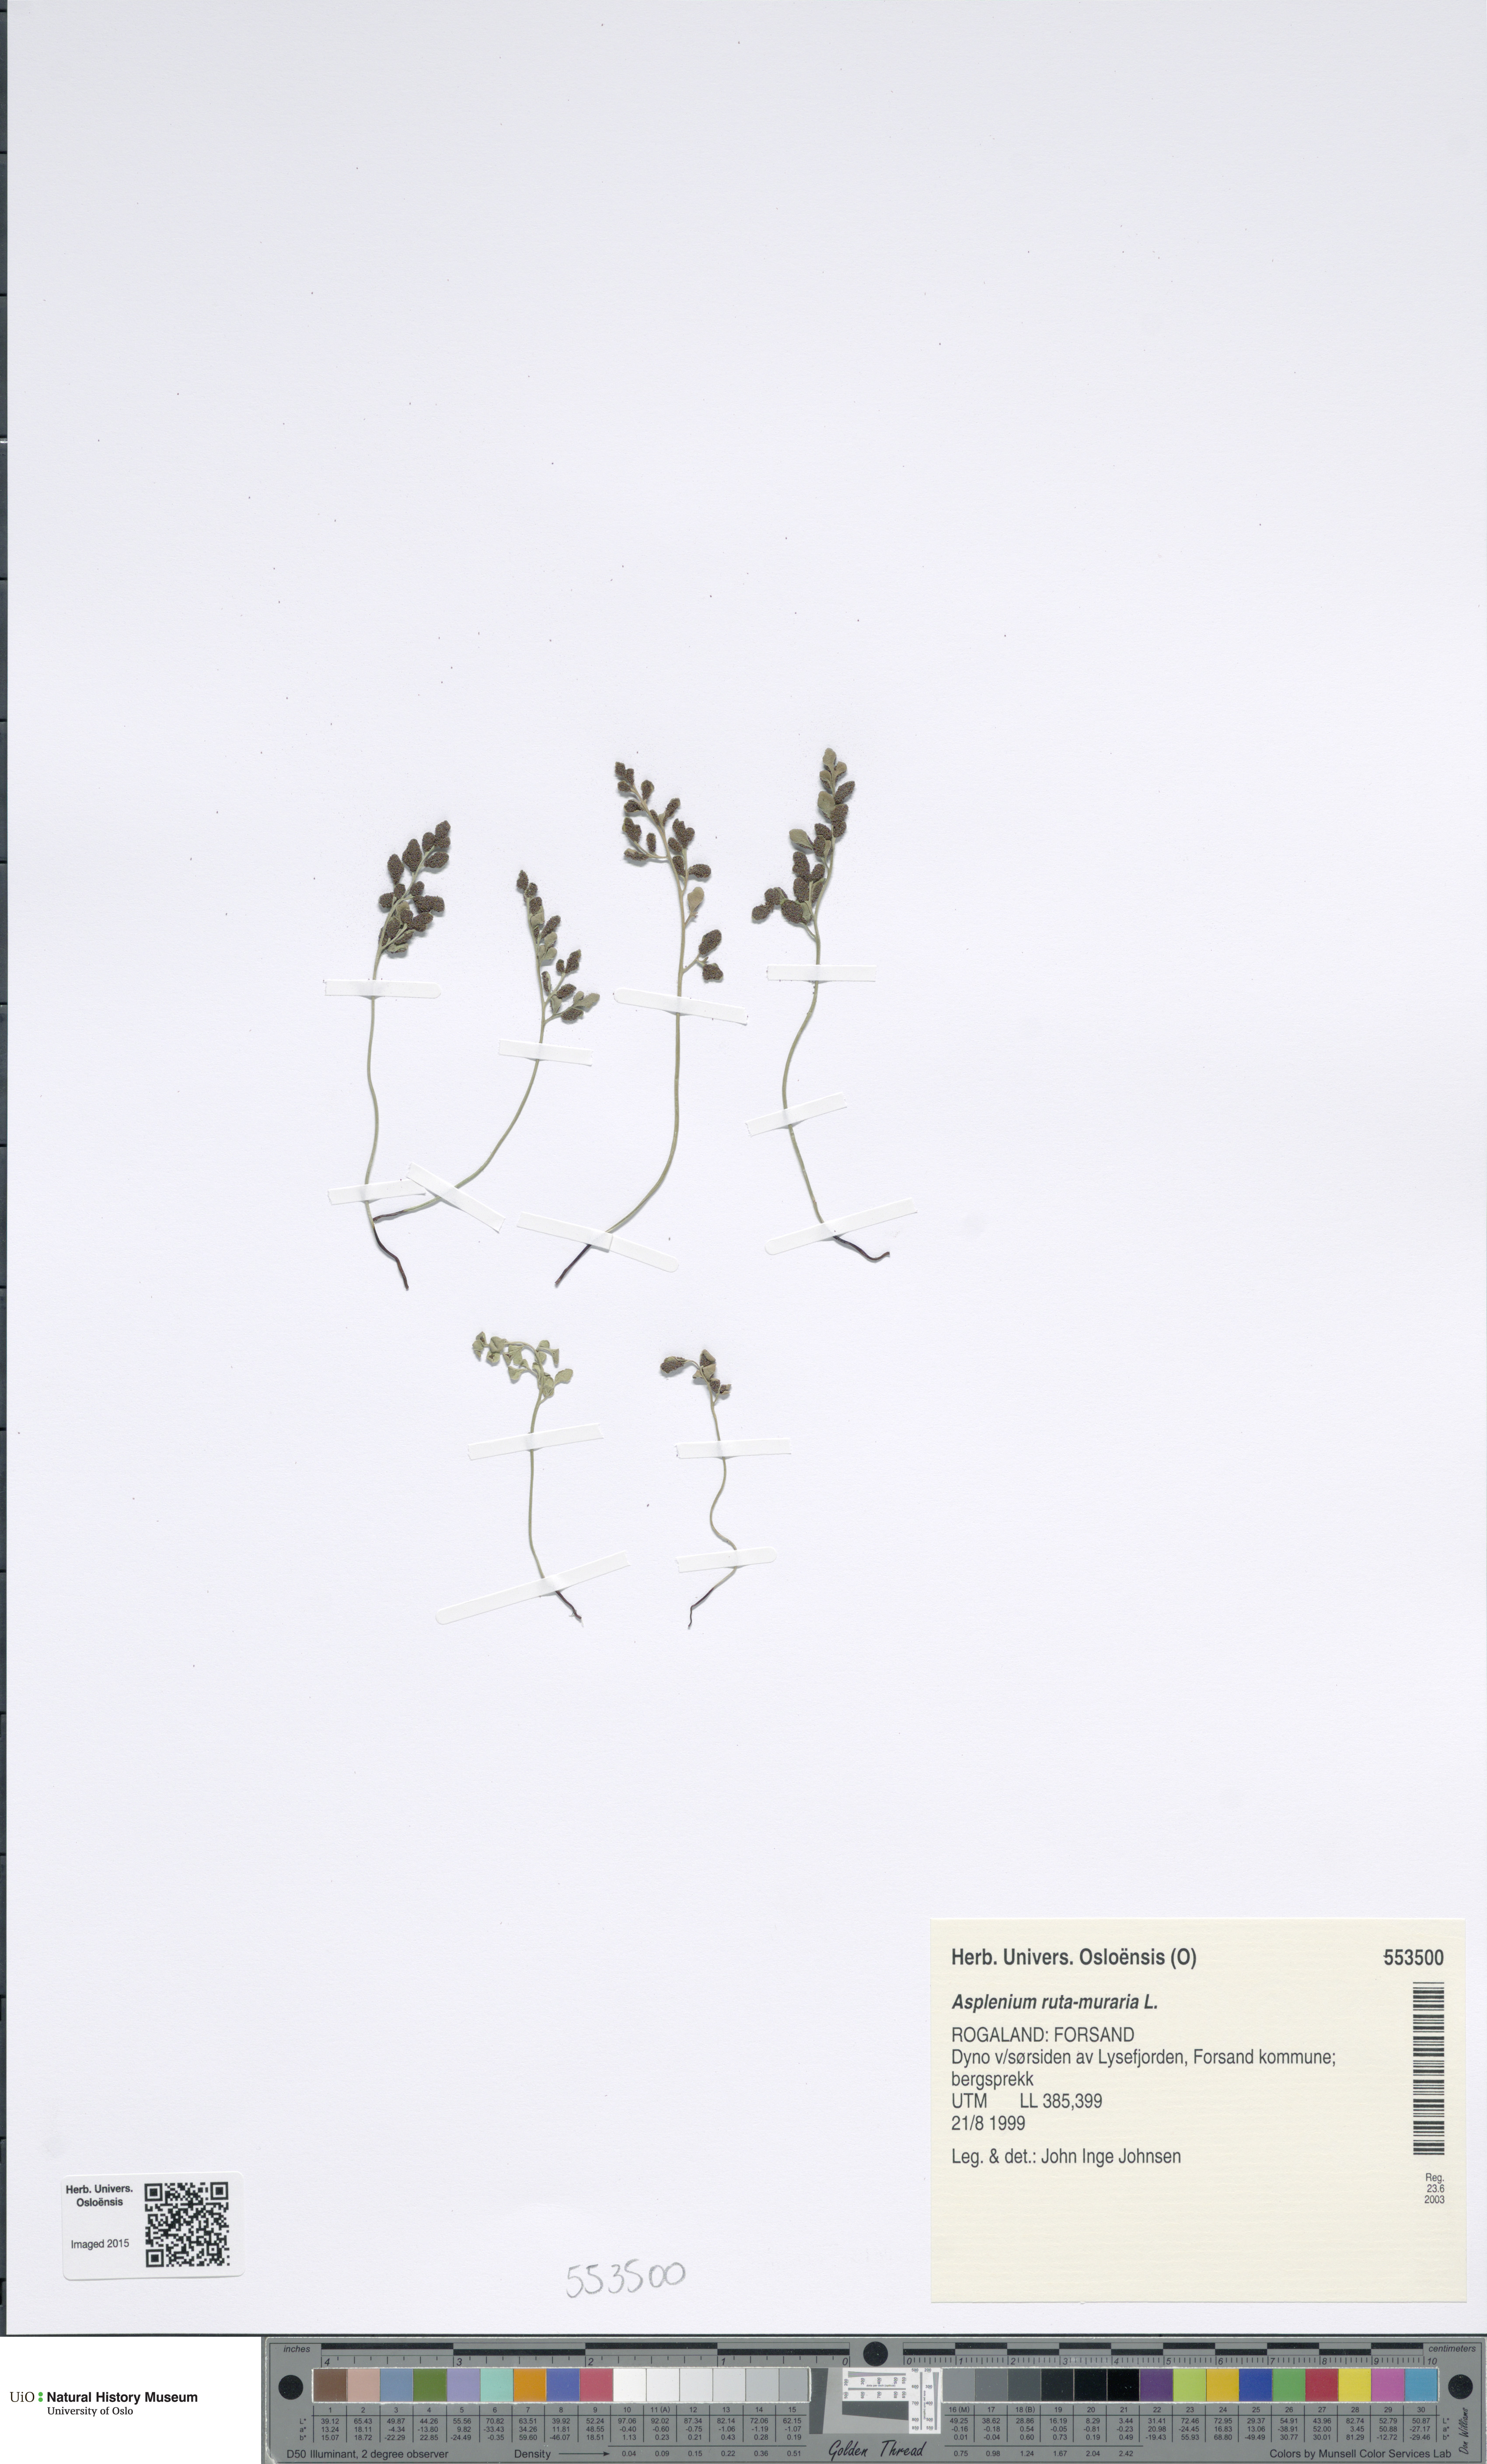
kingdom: Plantae
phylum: Tracheophyta
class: Polypodiopsida
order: Polypodiales
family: Aspleniaceae
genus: Asplenium
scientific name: Asplenium ruta-muraria
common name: Wall-rue
